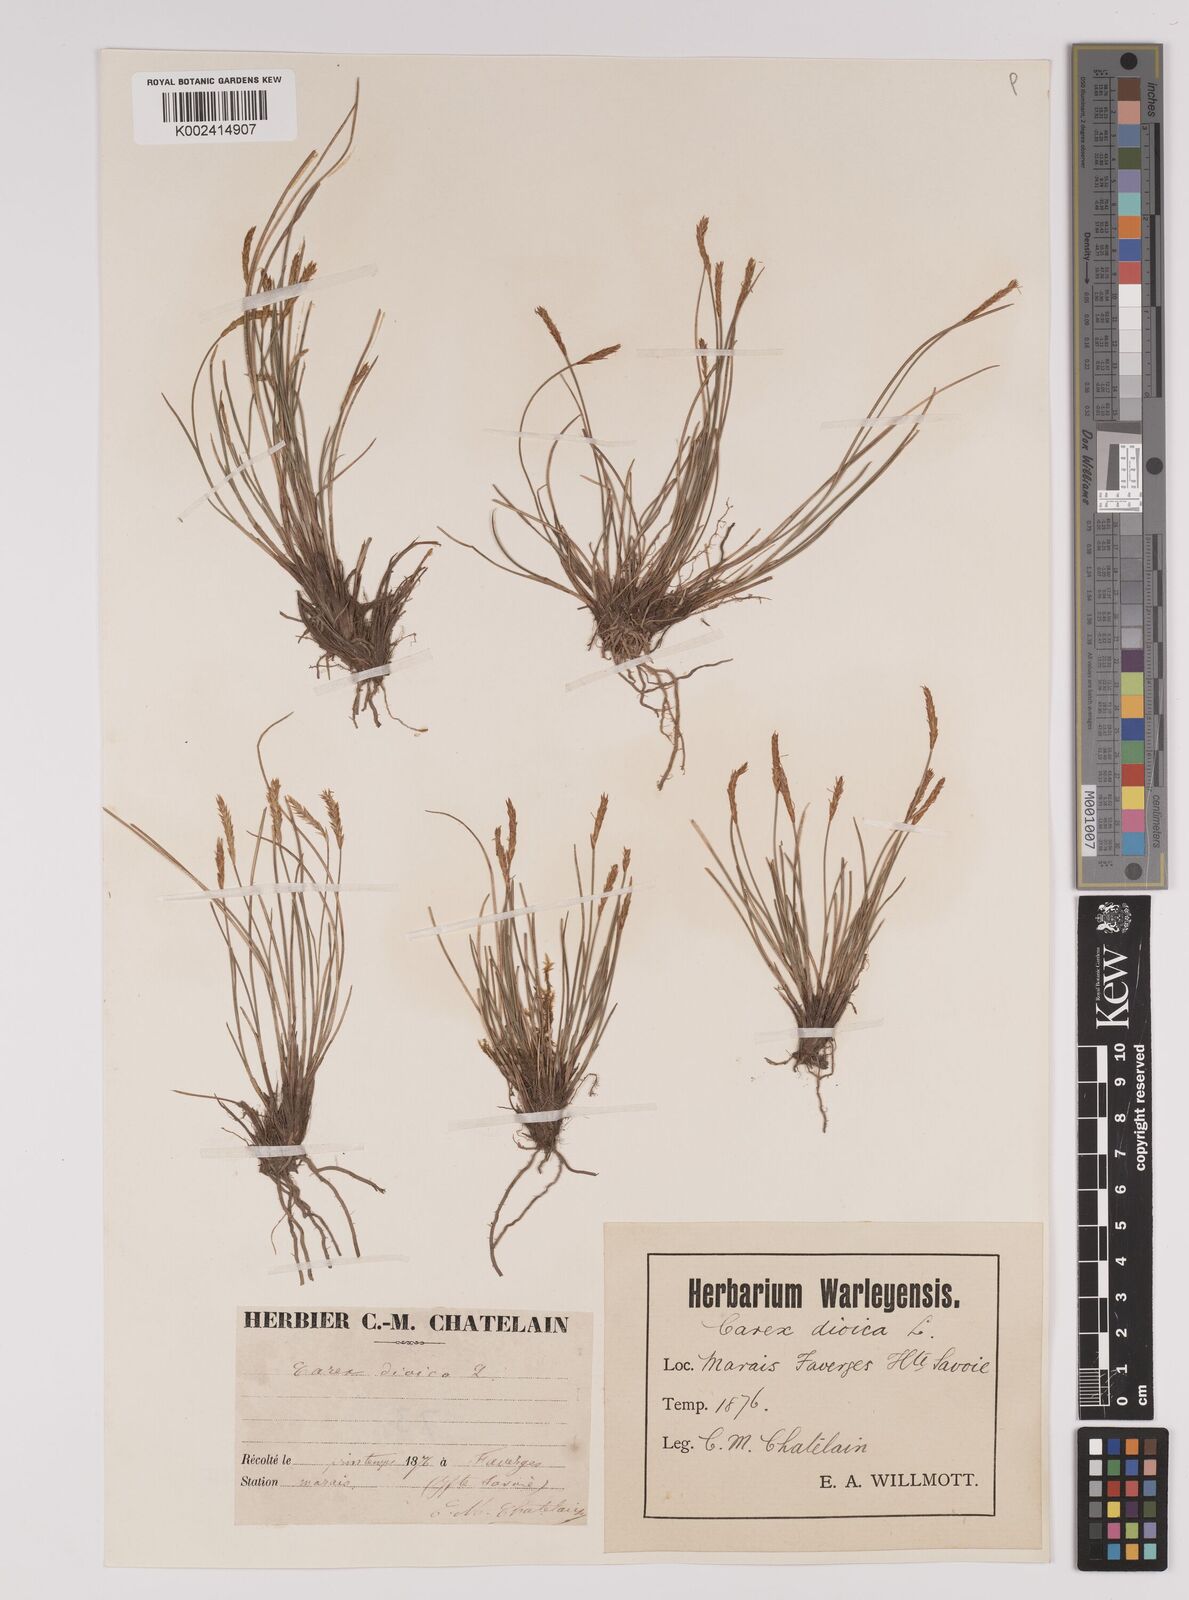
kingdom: Plantae
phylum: Tracheophyta
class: Liliopsida
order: Poales
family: Cyperaceae
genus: Carex
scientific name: Carex dioica
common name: Dioecious sedge
